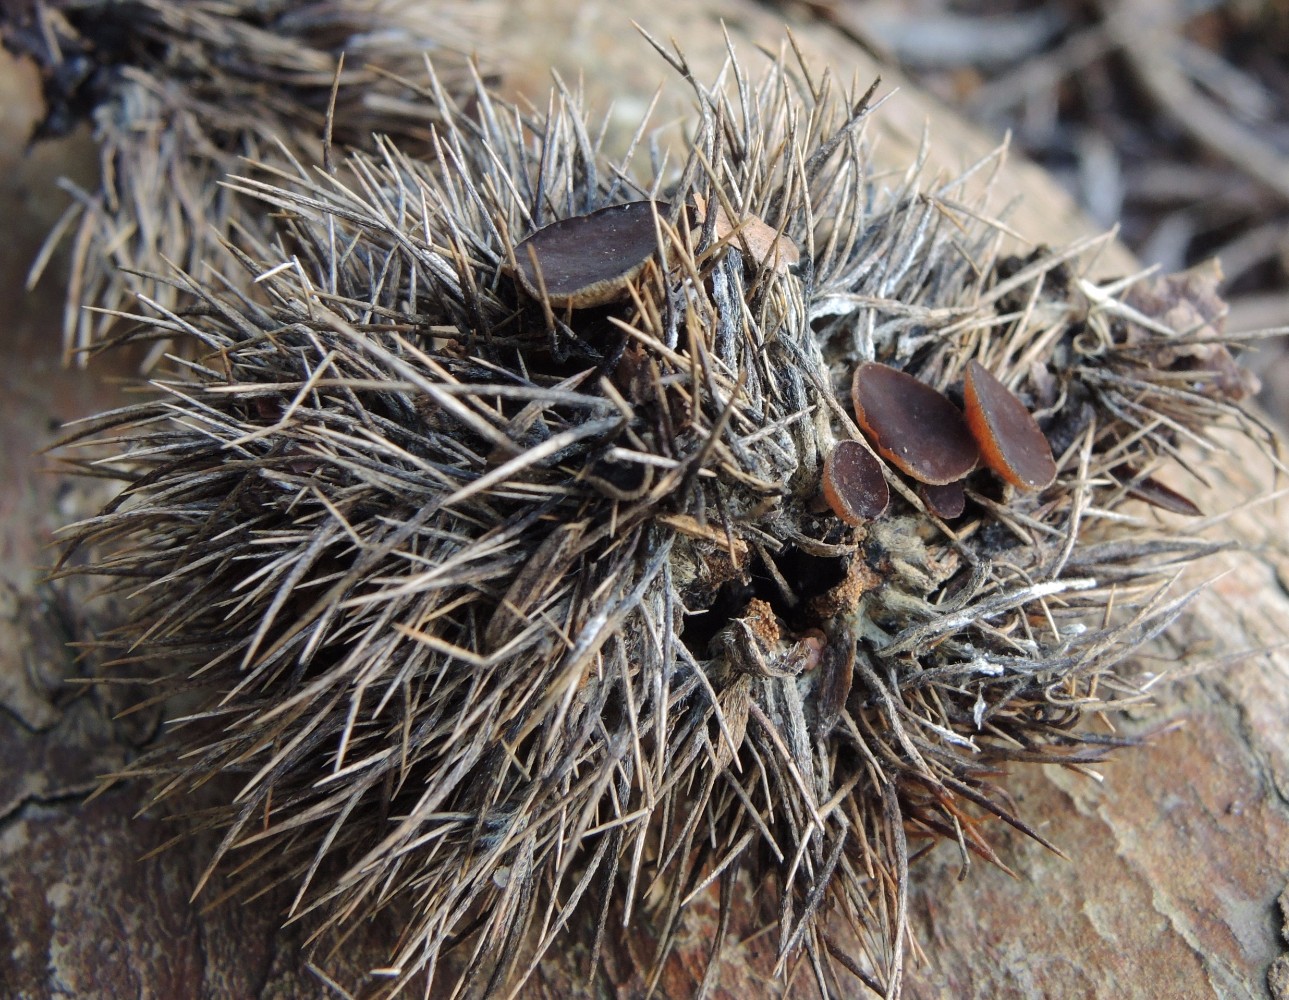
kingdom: Fungi
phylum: Ascomycota
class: Leotiomycetes
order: Helotiales
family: Rutstroemiaceae
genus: Lanzia
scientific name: Lanzia echinophila
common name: kastanie-brunskive
